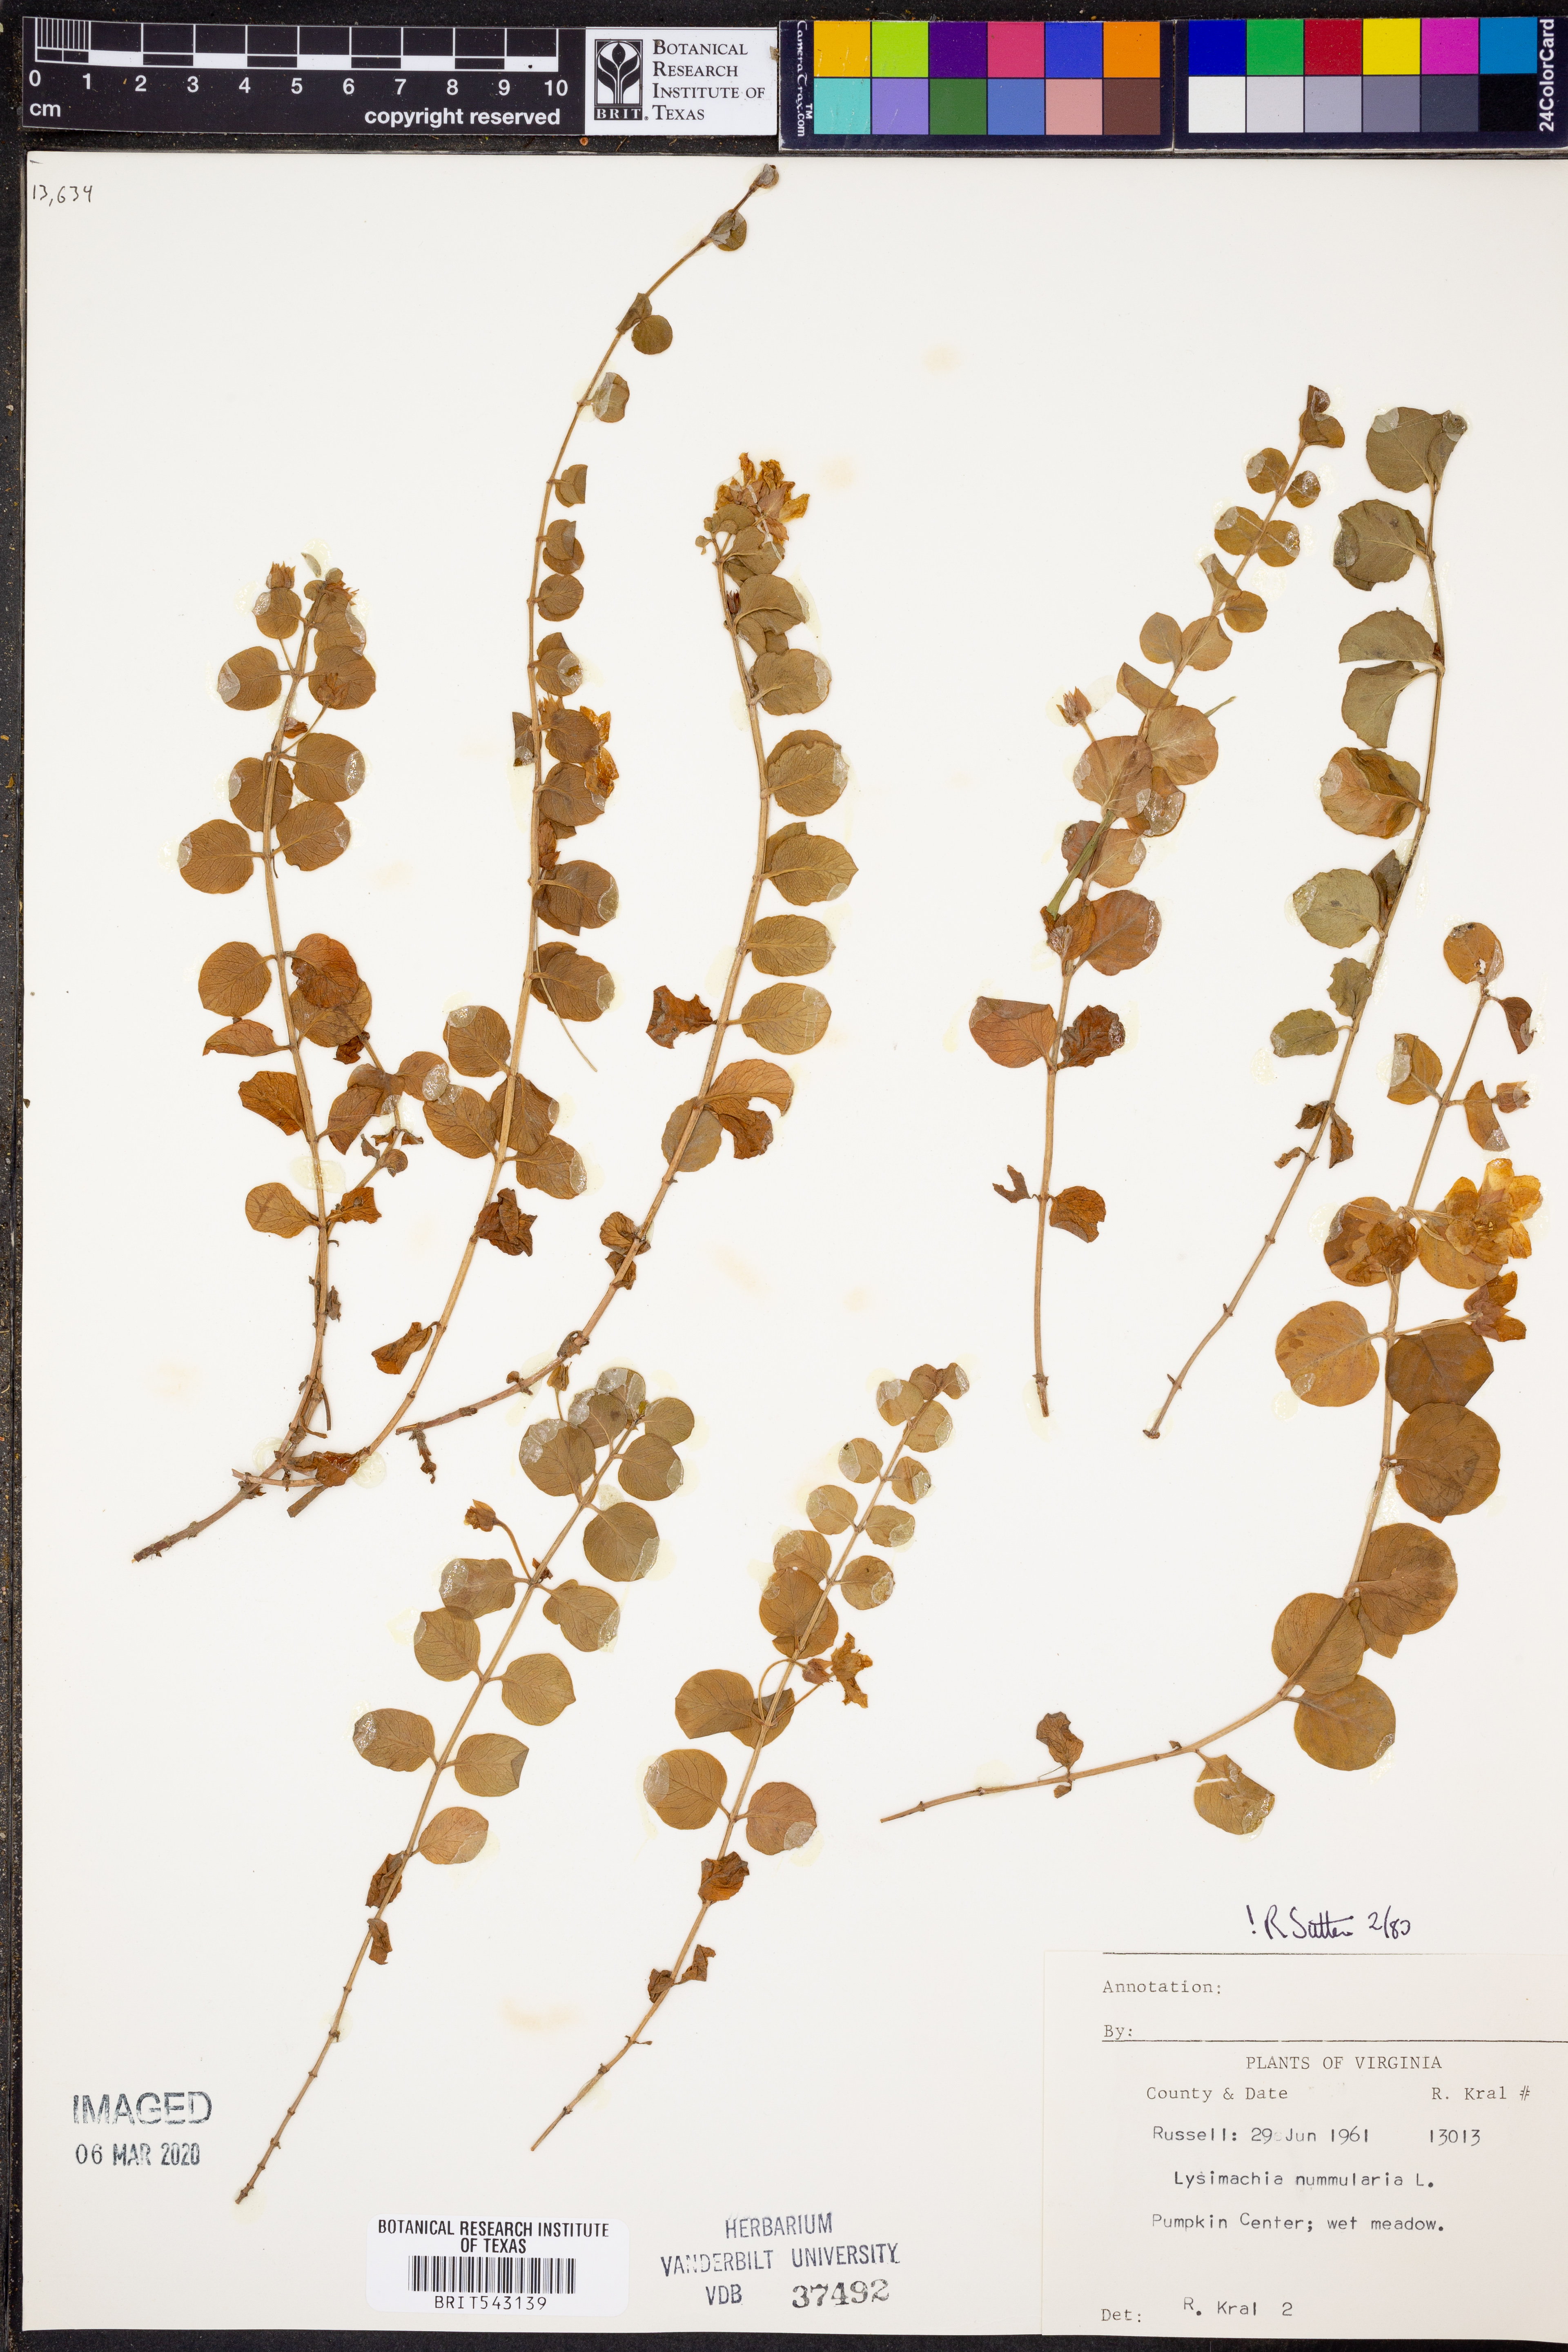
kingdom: Plantae
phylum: Tracheophyta
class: Magnoliopsida
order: Ericales
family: Primulaceae
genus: Lysimachia
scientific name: Lysimachia nummularia
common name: Moneywort
